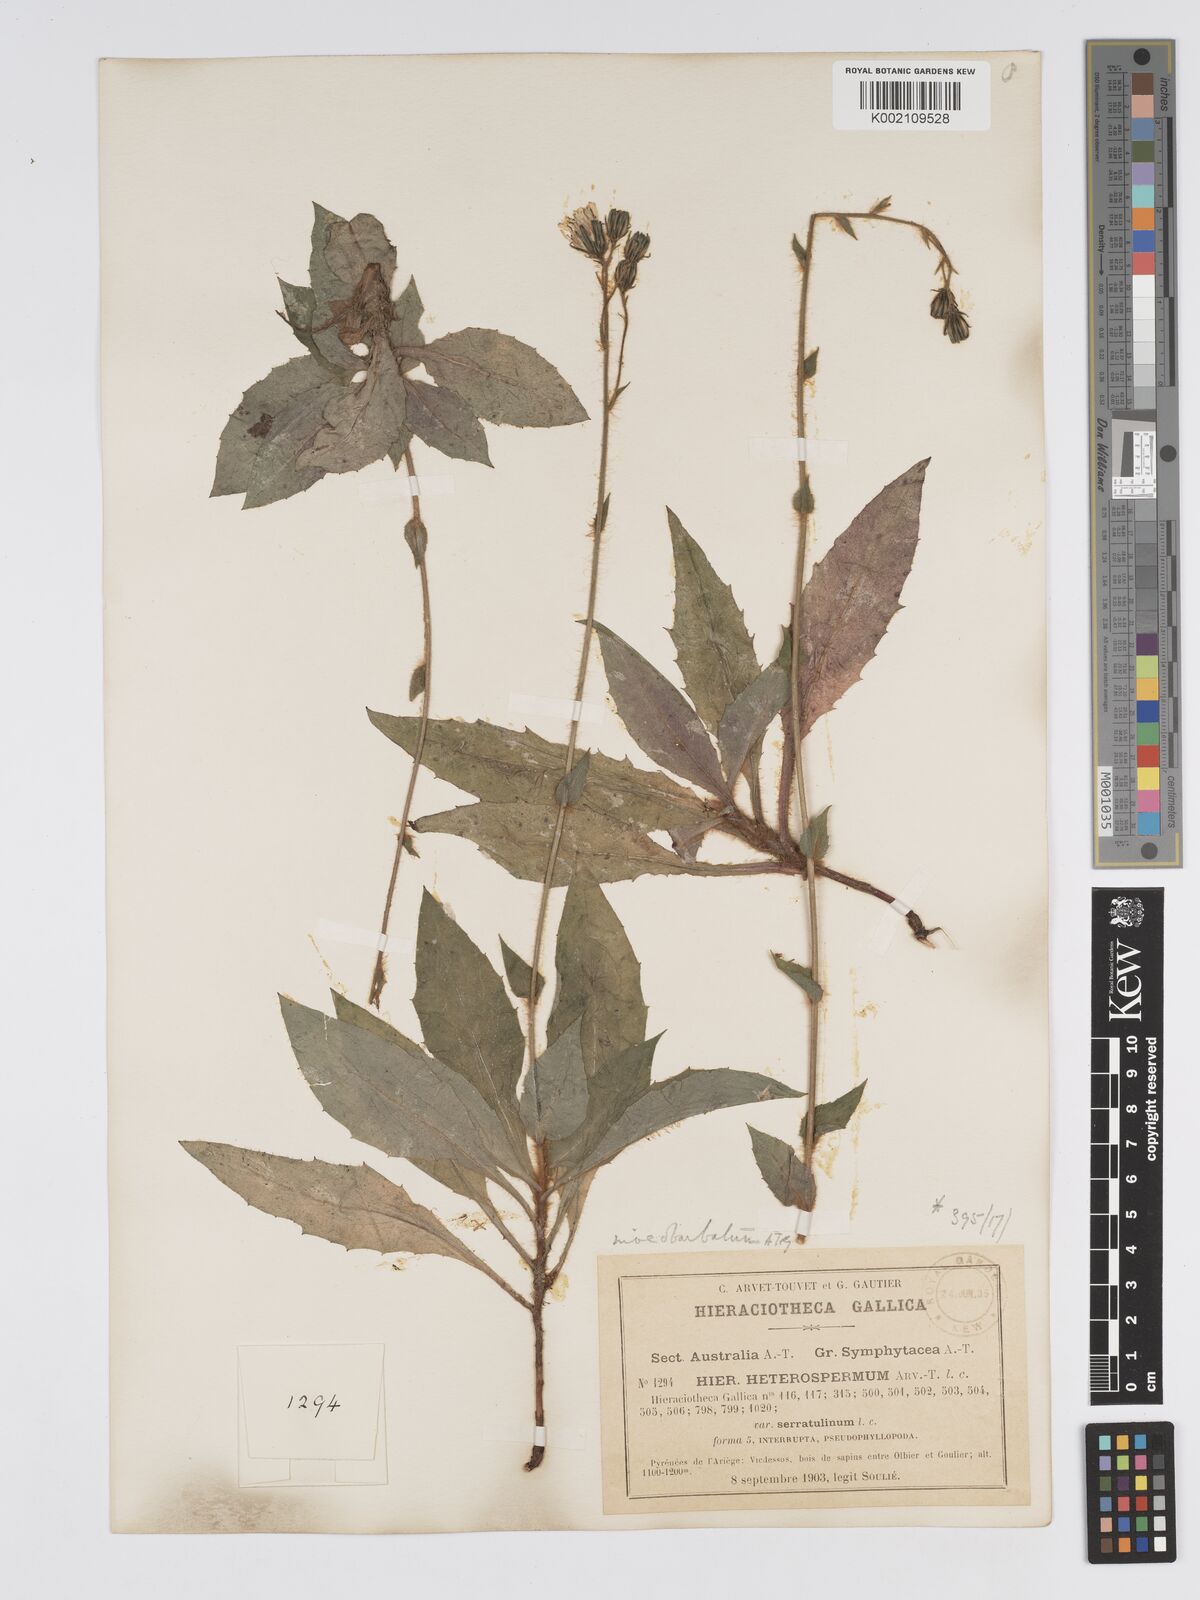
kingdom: Plantae
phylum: Tracheophyta
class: Magnoliopsida
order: Asterales
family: Asteraceae
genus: Hieracium
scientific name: Hieracium racemosum
